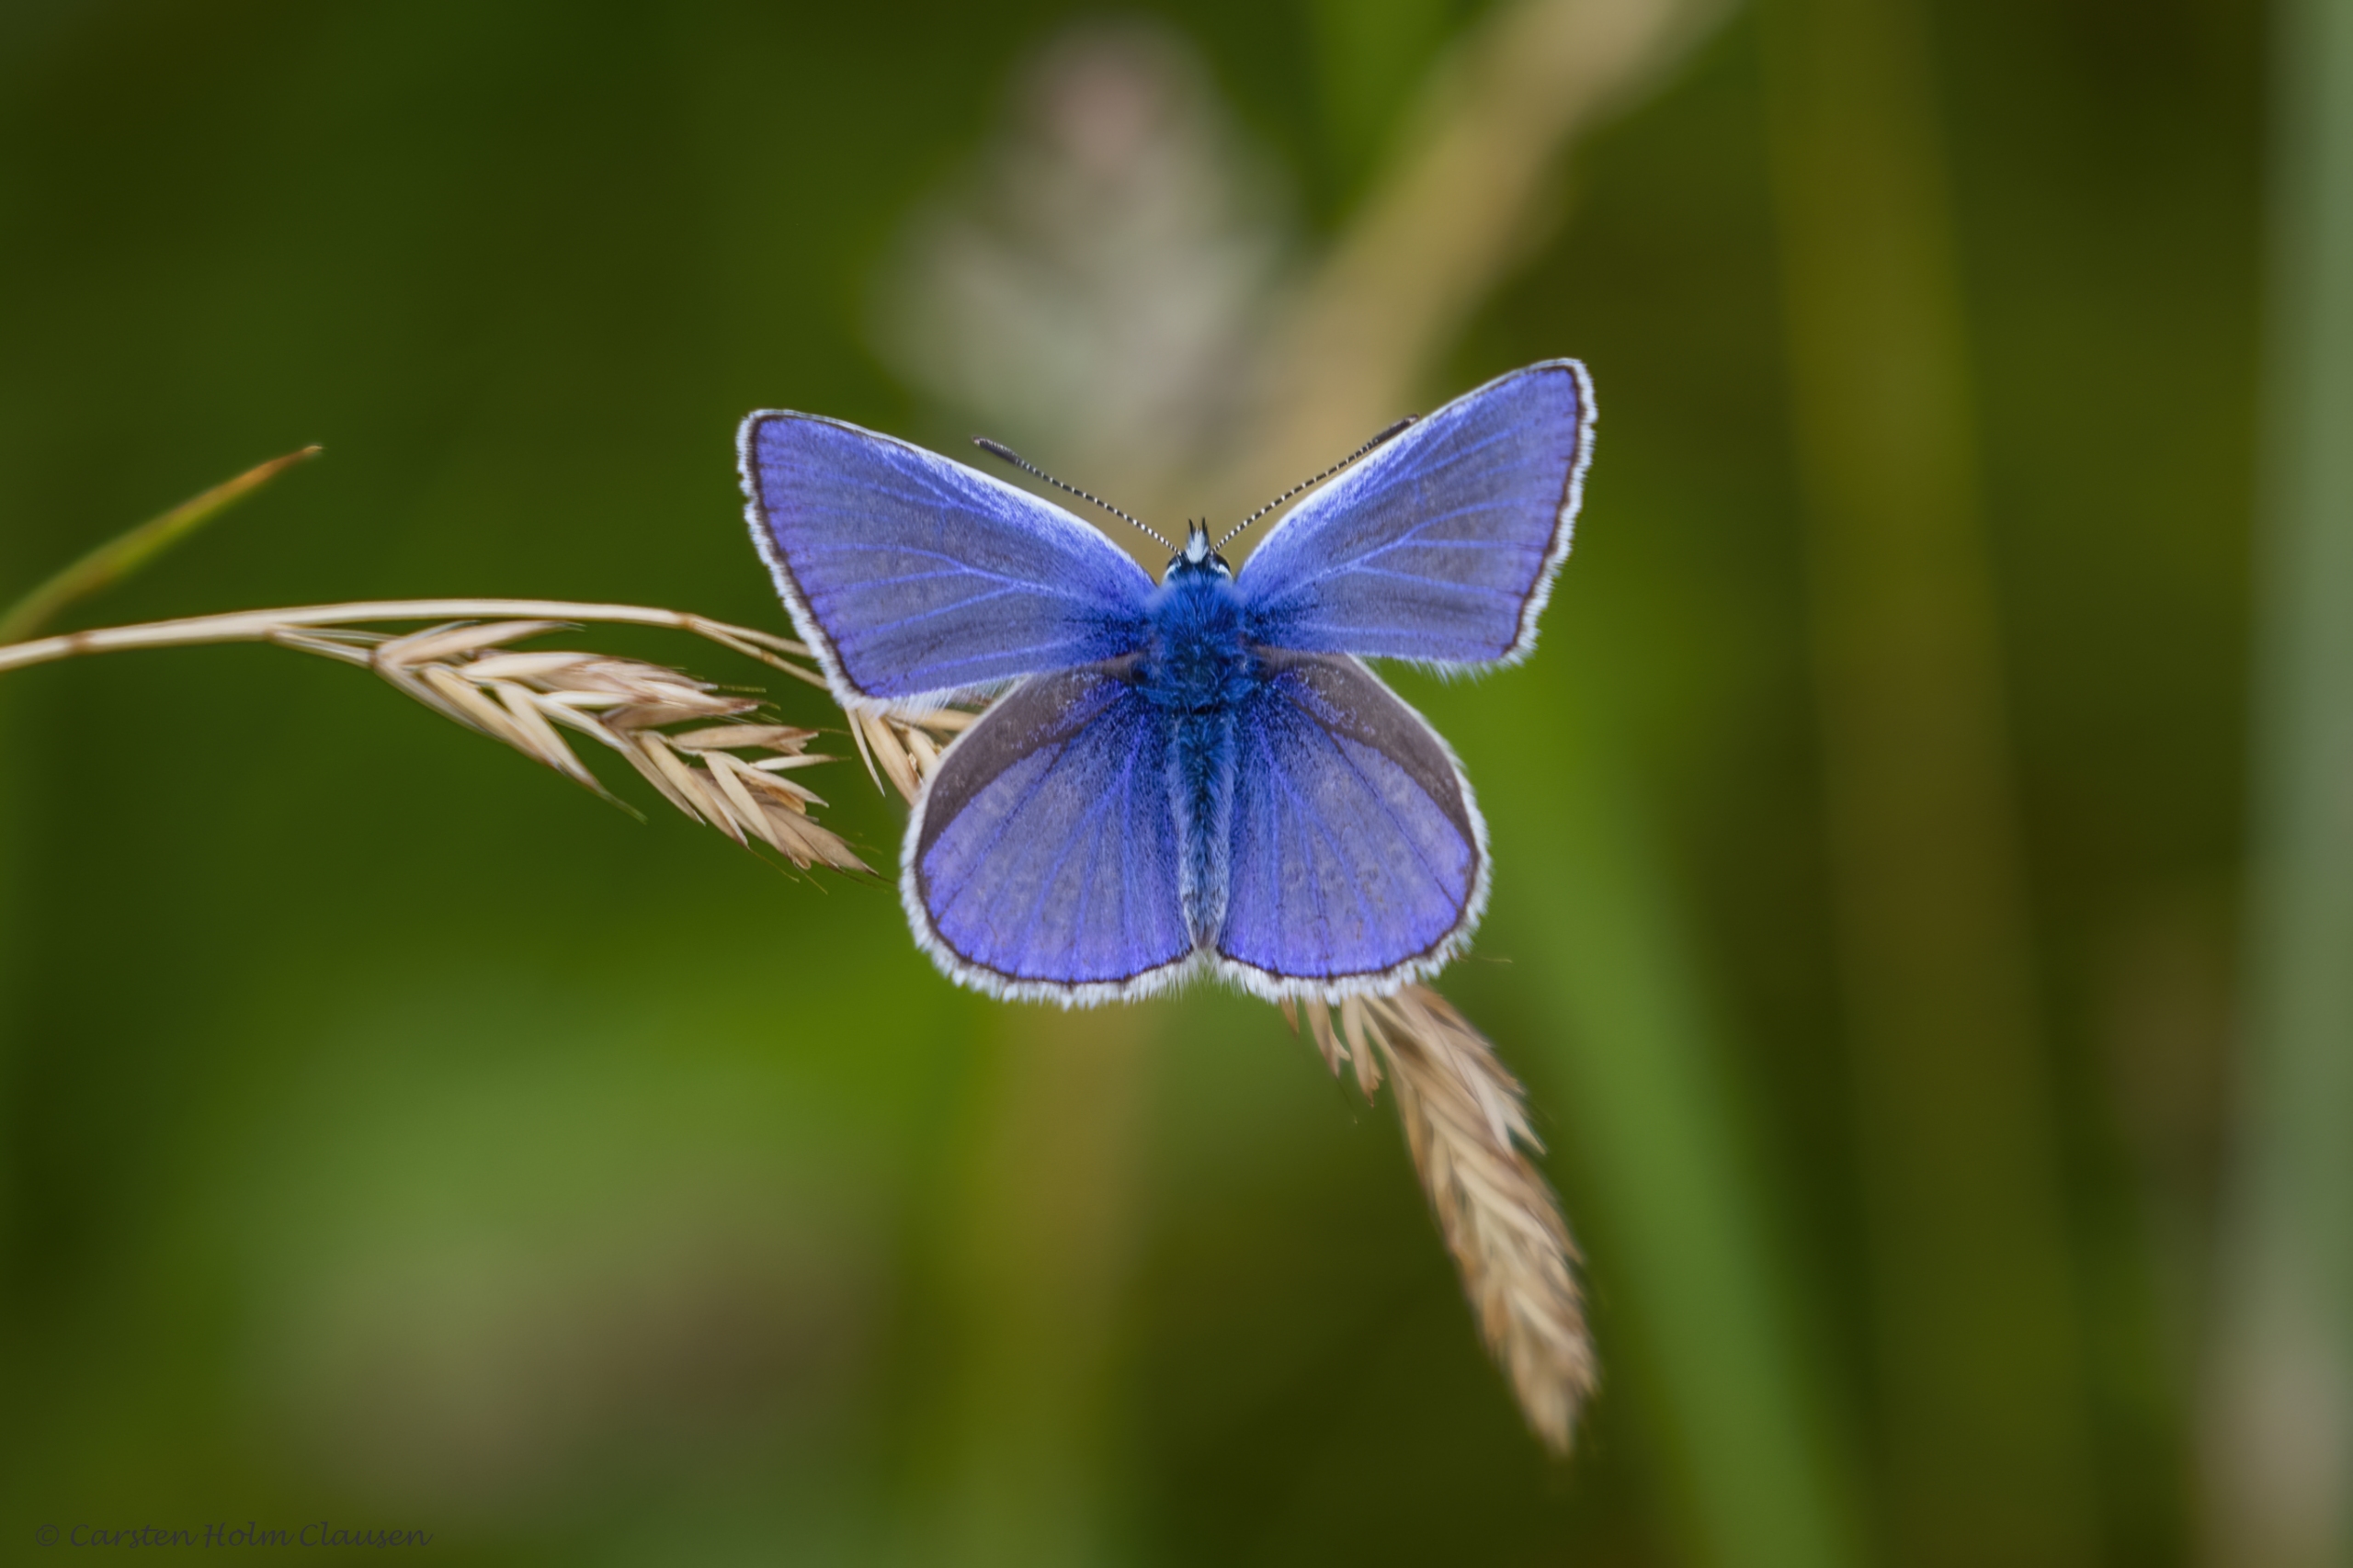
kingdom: Animalia
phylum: Arthropoda
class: Insecta
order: Lepidoptera
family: Lycaenidae
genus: Polyommatus
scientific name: Polyommatus icarus
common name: Almindelig blåfugl
